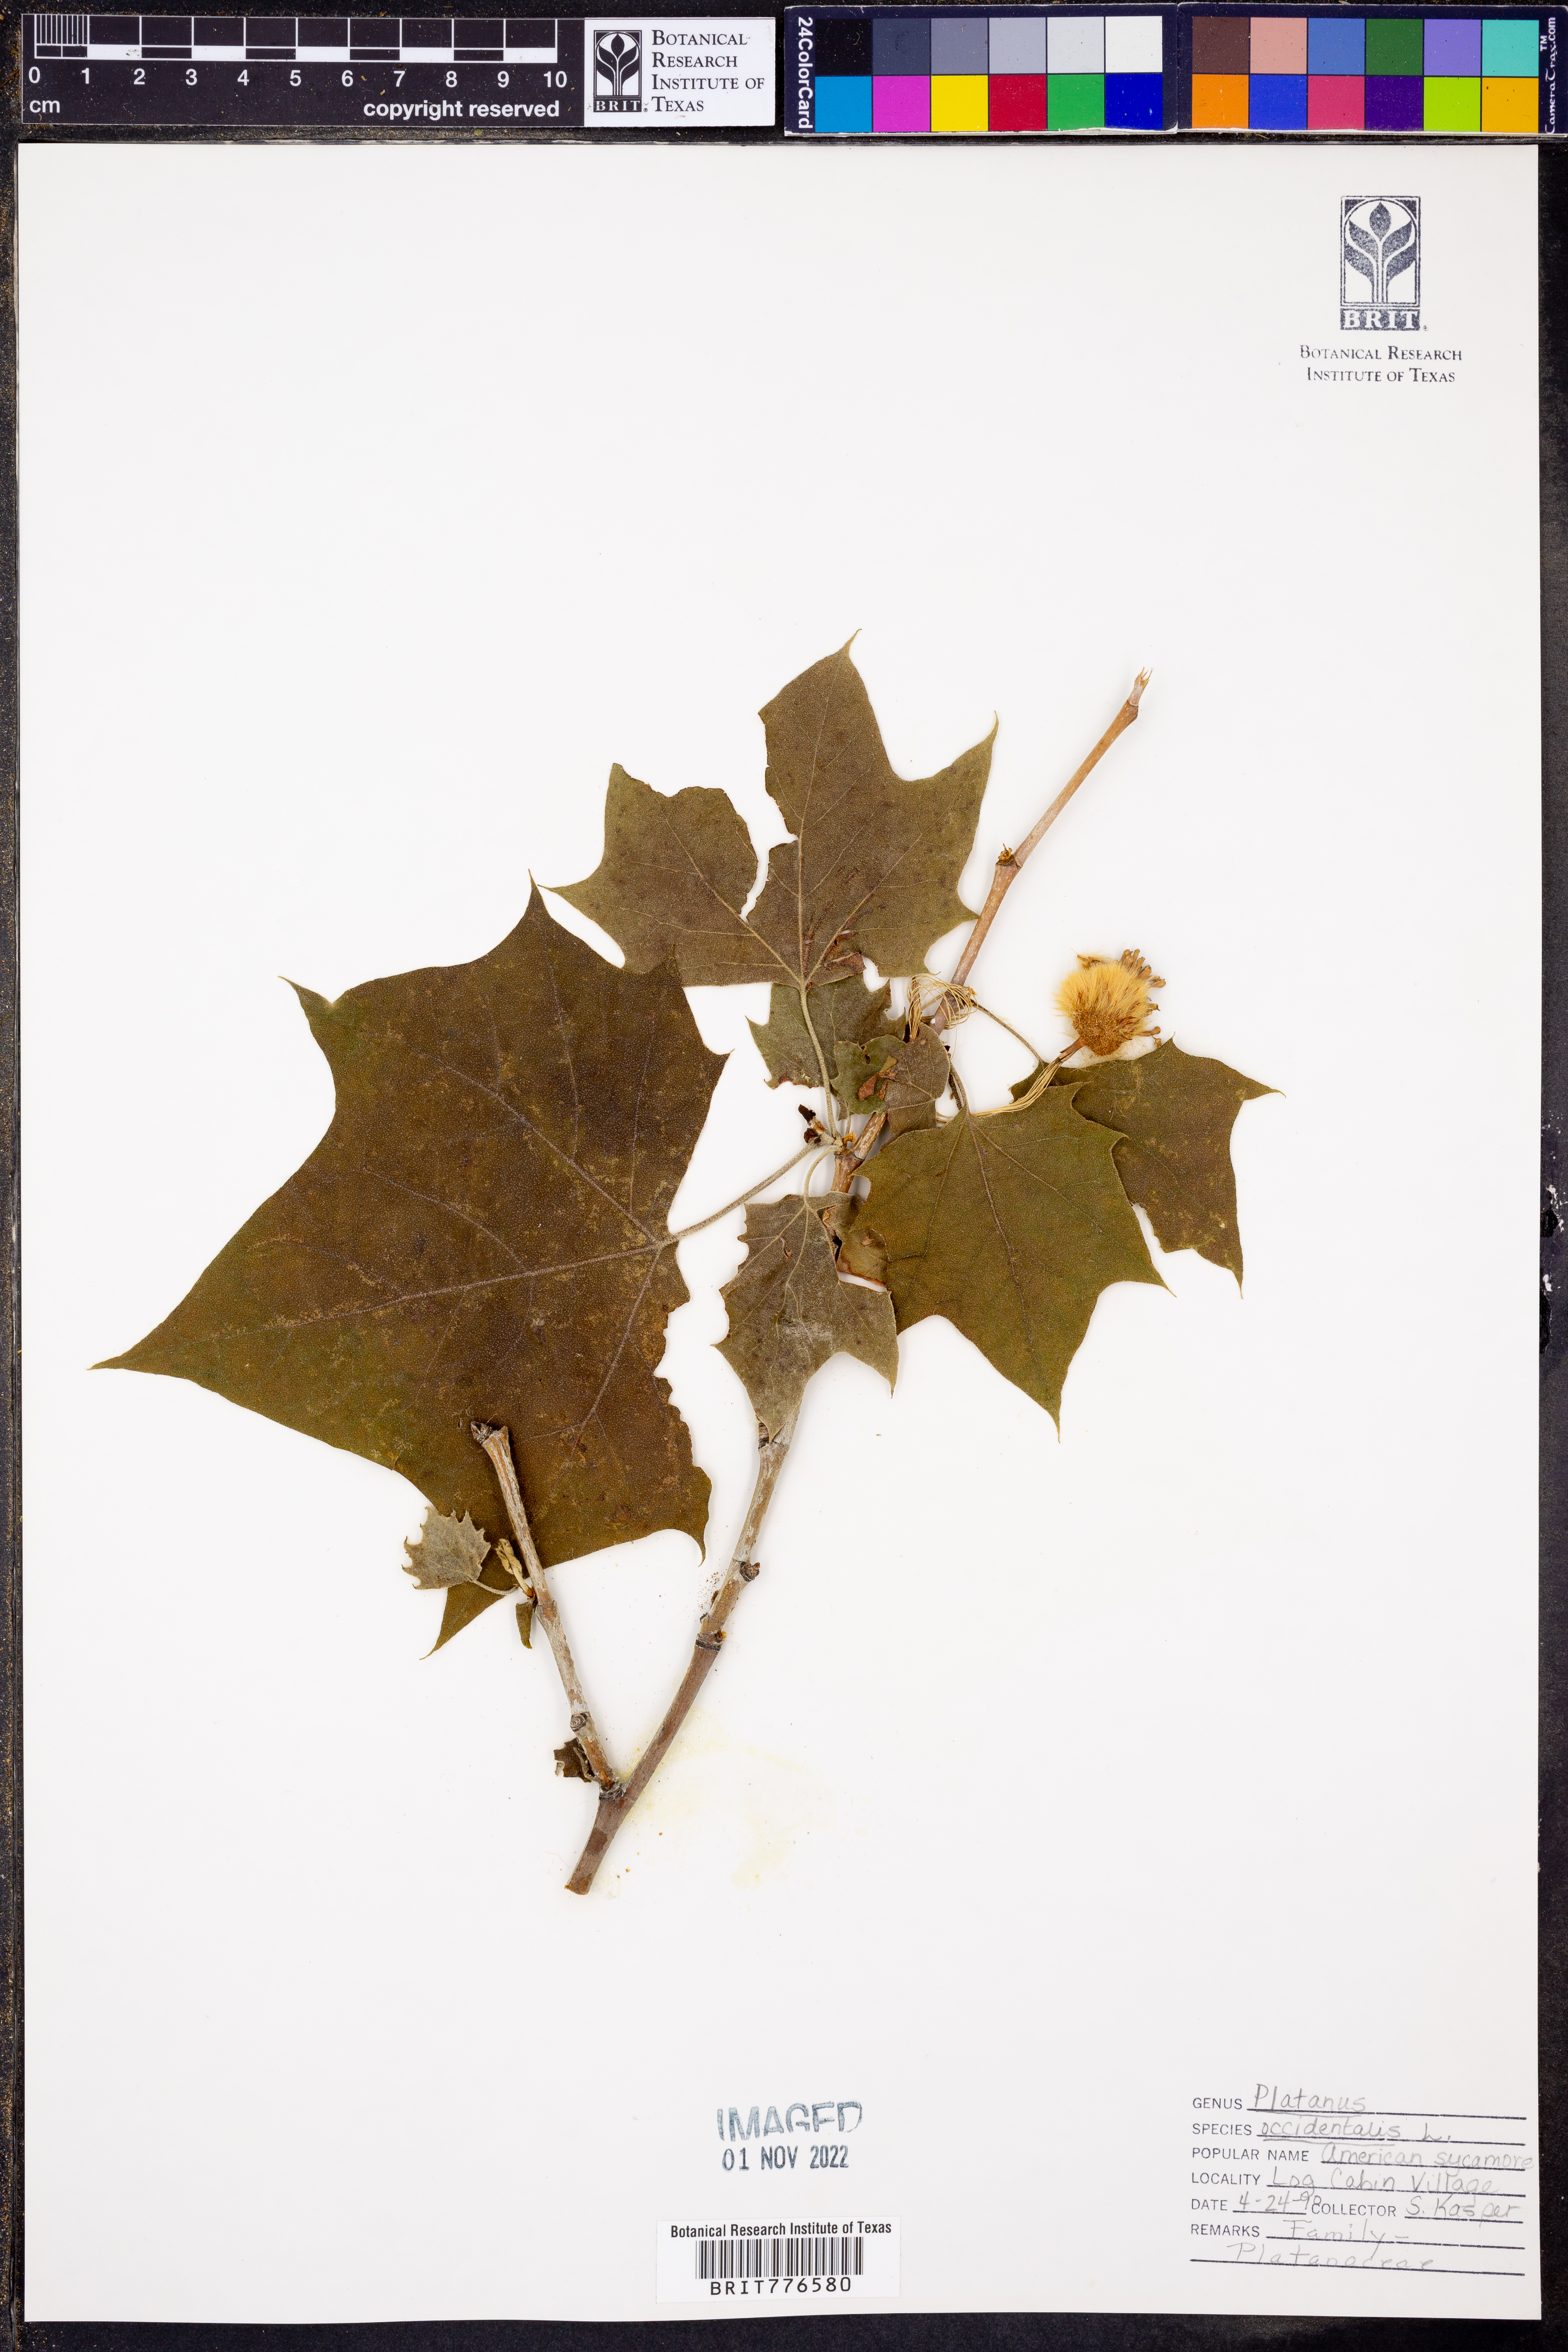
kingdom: Plantae
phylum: Tracheophyta
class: Magnoliopsida
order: Proteales
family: Platanaceae
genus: Platanus
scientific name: Platanus occidentalis
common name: American sycamore
